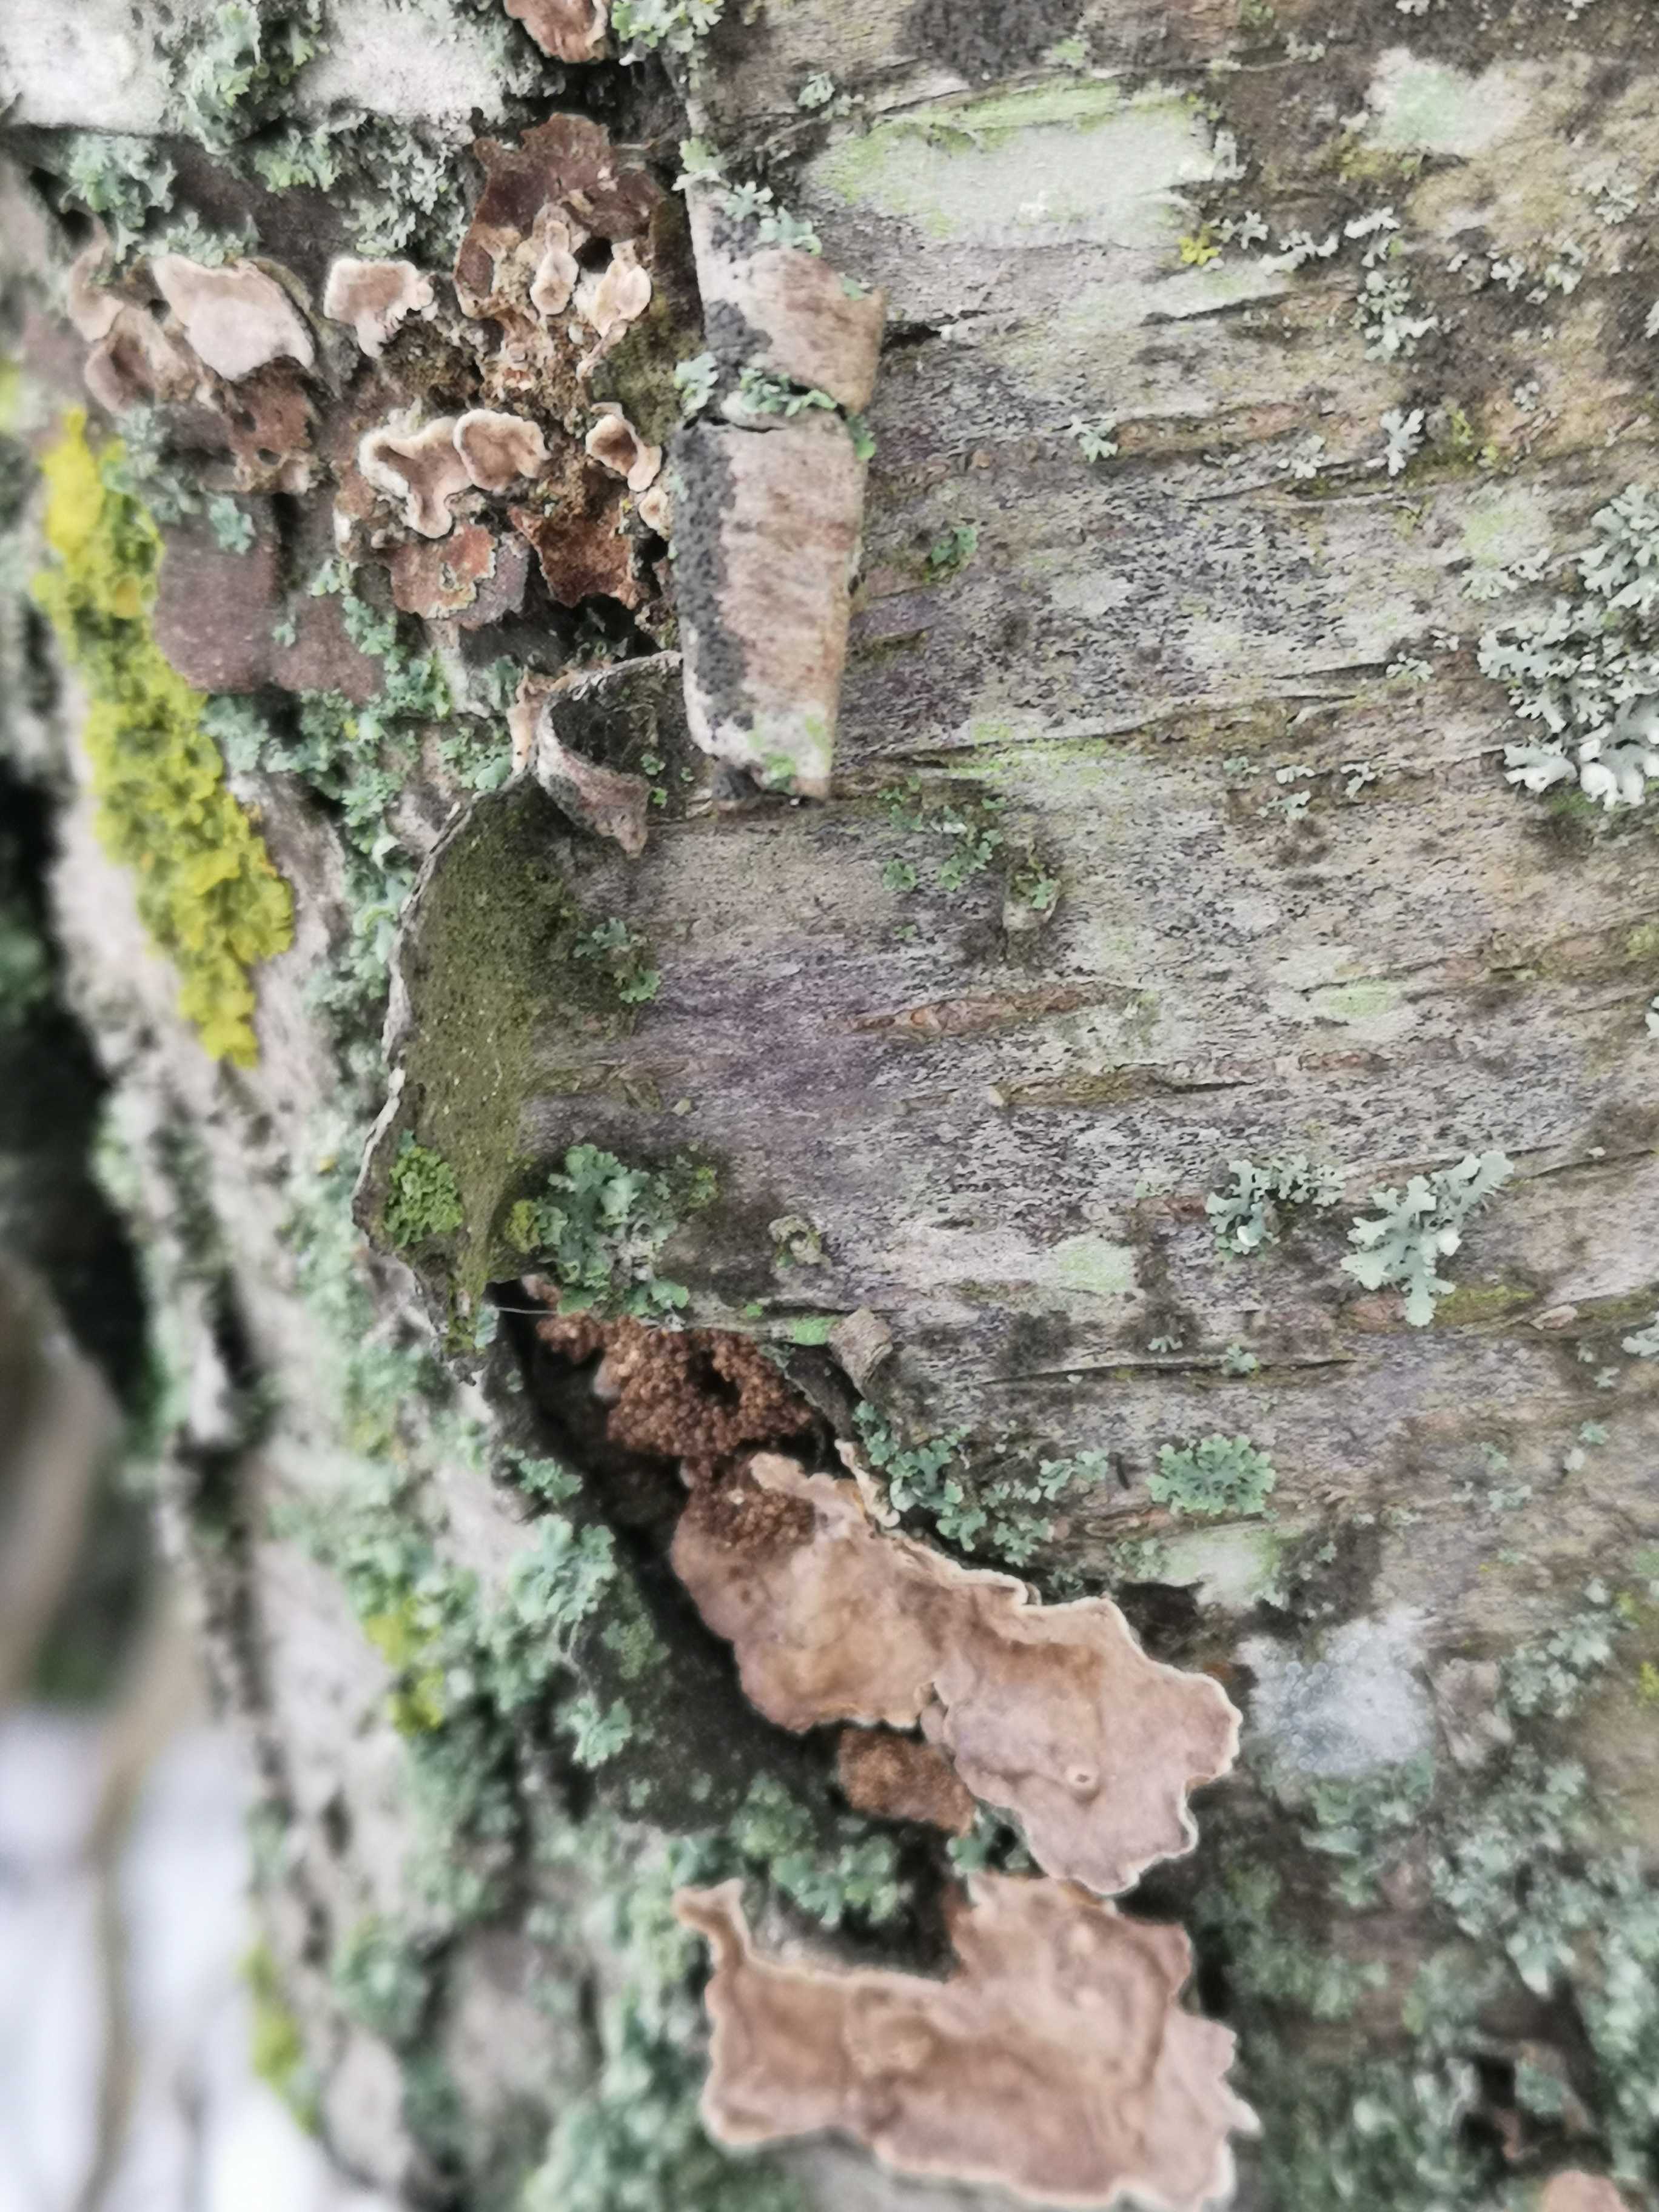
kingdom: Fungi
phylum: Basidiomycota
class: Agaricomycetes
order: Russulales
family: Stereaceae
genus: Stereum
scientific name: Stereum rugosum
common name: rynket lædersvamp
